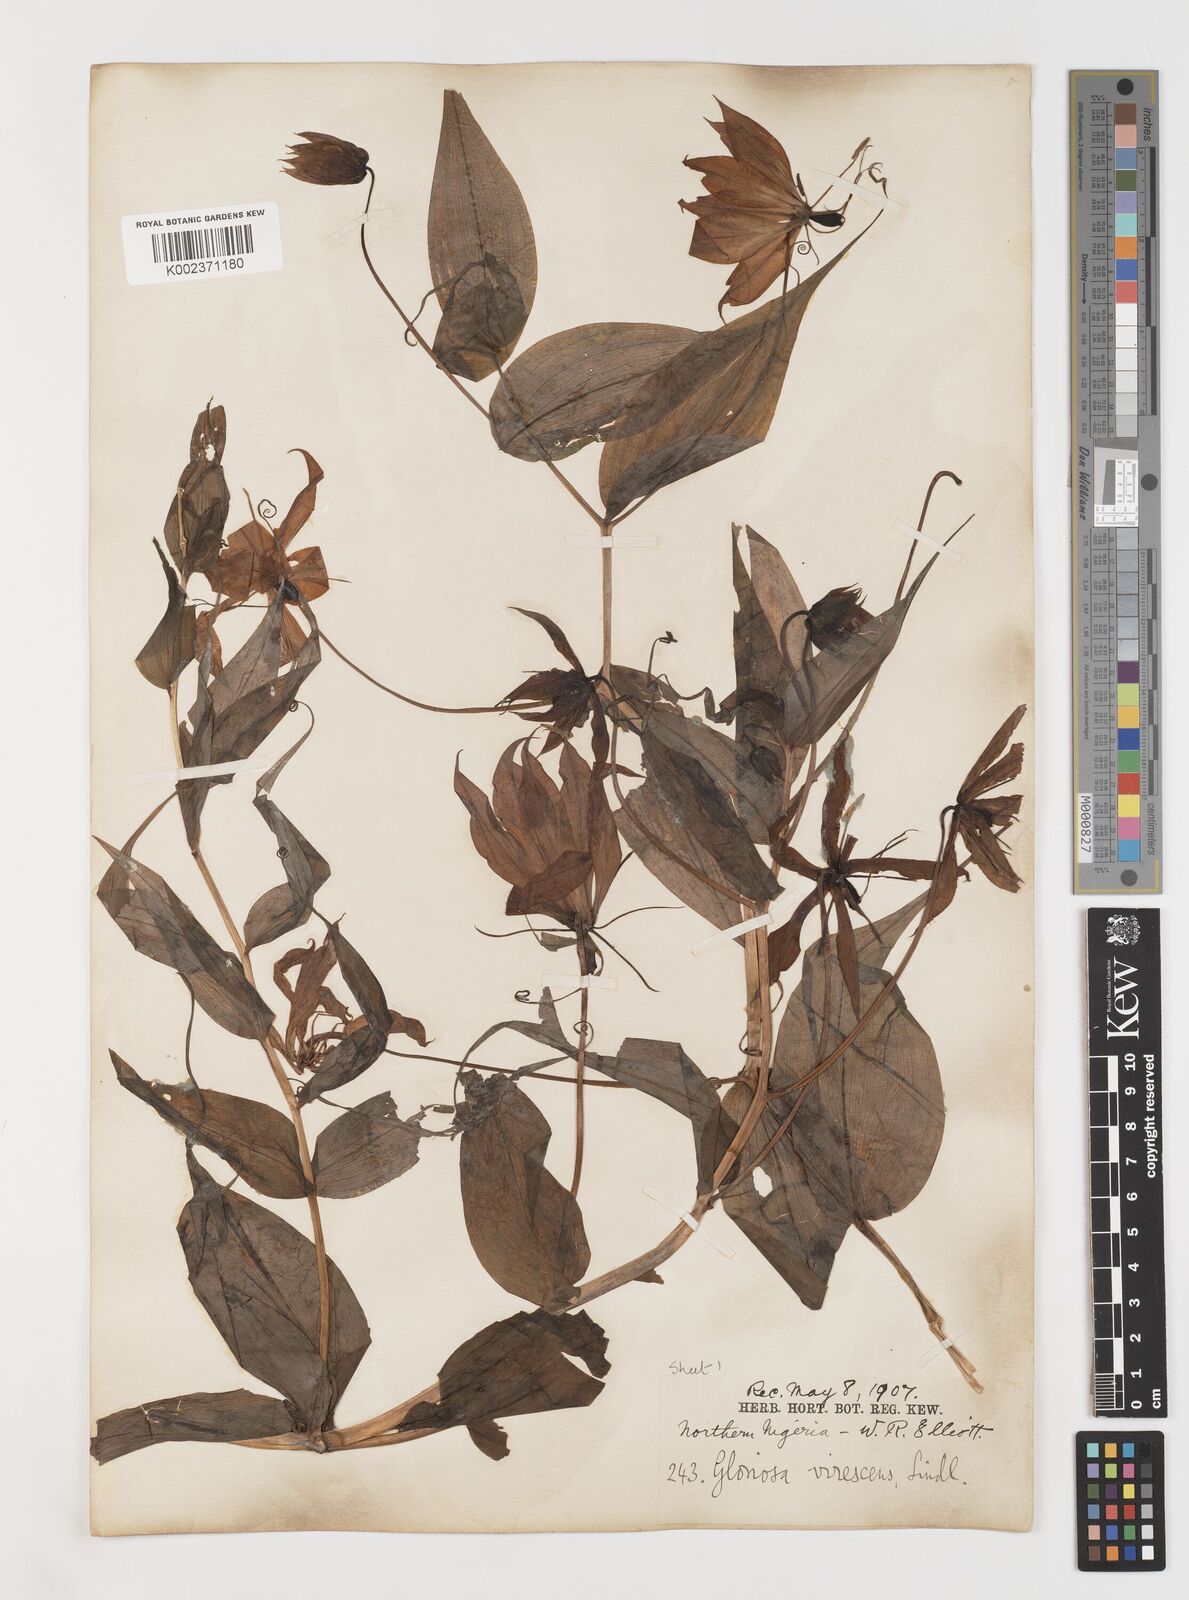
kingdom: Plantae
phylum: Tracheophyta
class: Liliopsida
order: Liliales
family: Colchicaceae
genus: Gloriosa
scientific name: Gloriosa simplex
